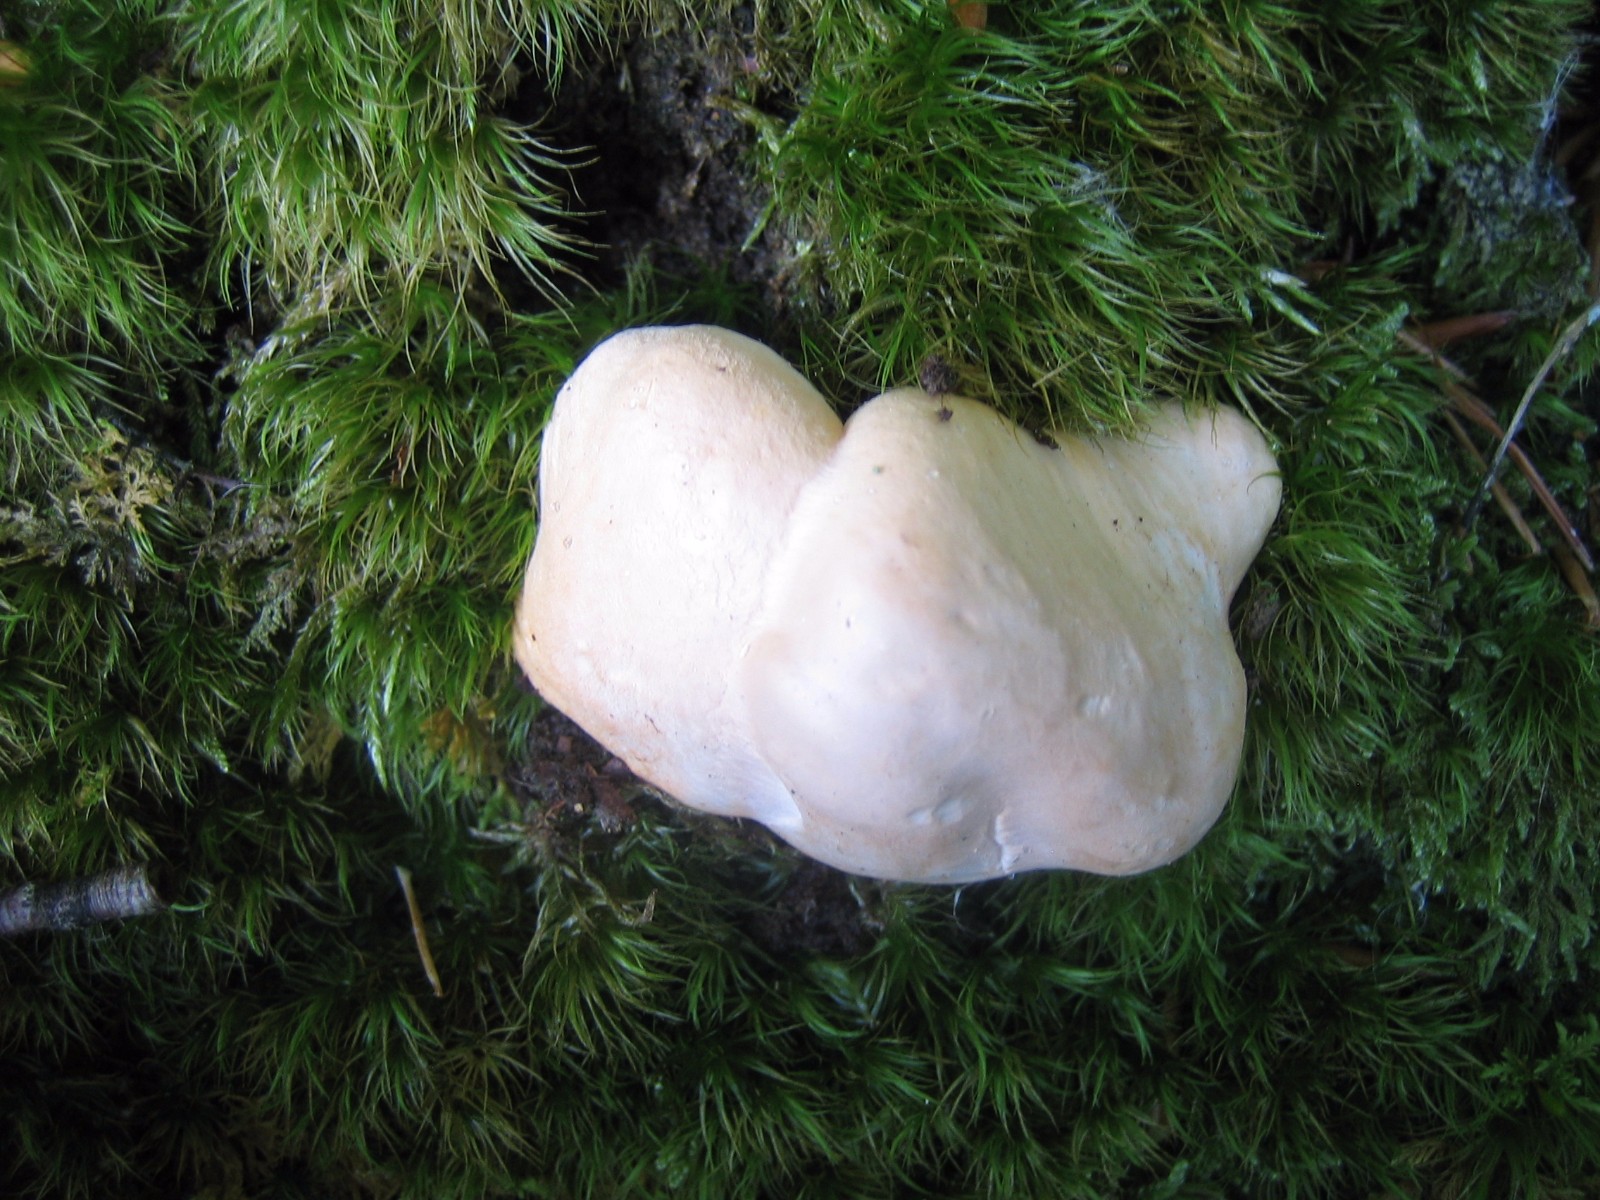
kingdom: Fungi
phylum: Basidiomycota
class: Agaricomycetes
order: Cantharellales
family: Hydnaceae
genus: Hydnum
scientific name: Hydnum repandum
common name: almindelig pigsvamp
